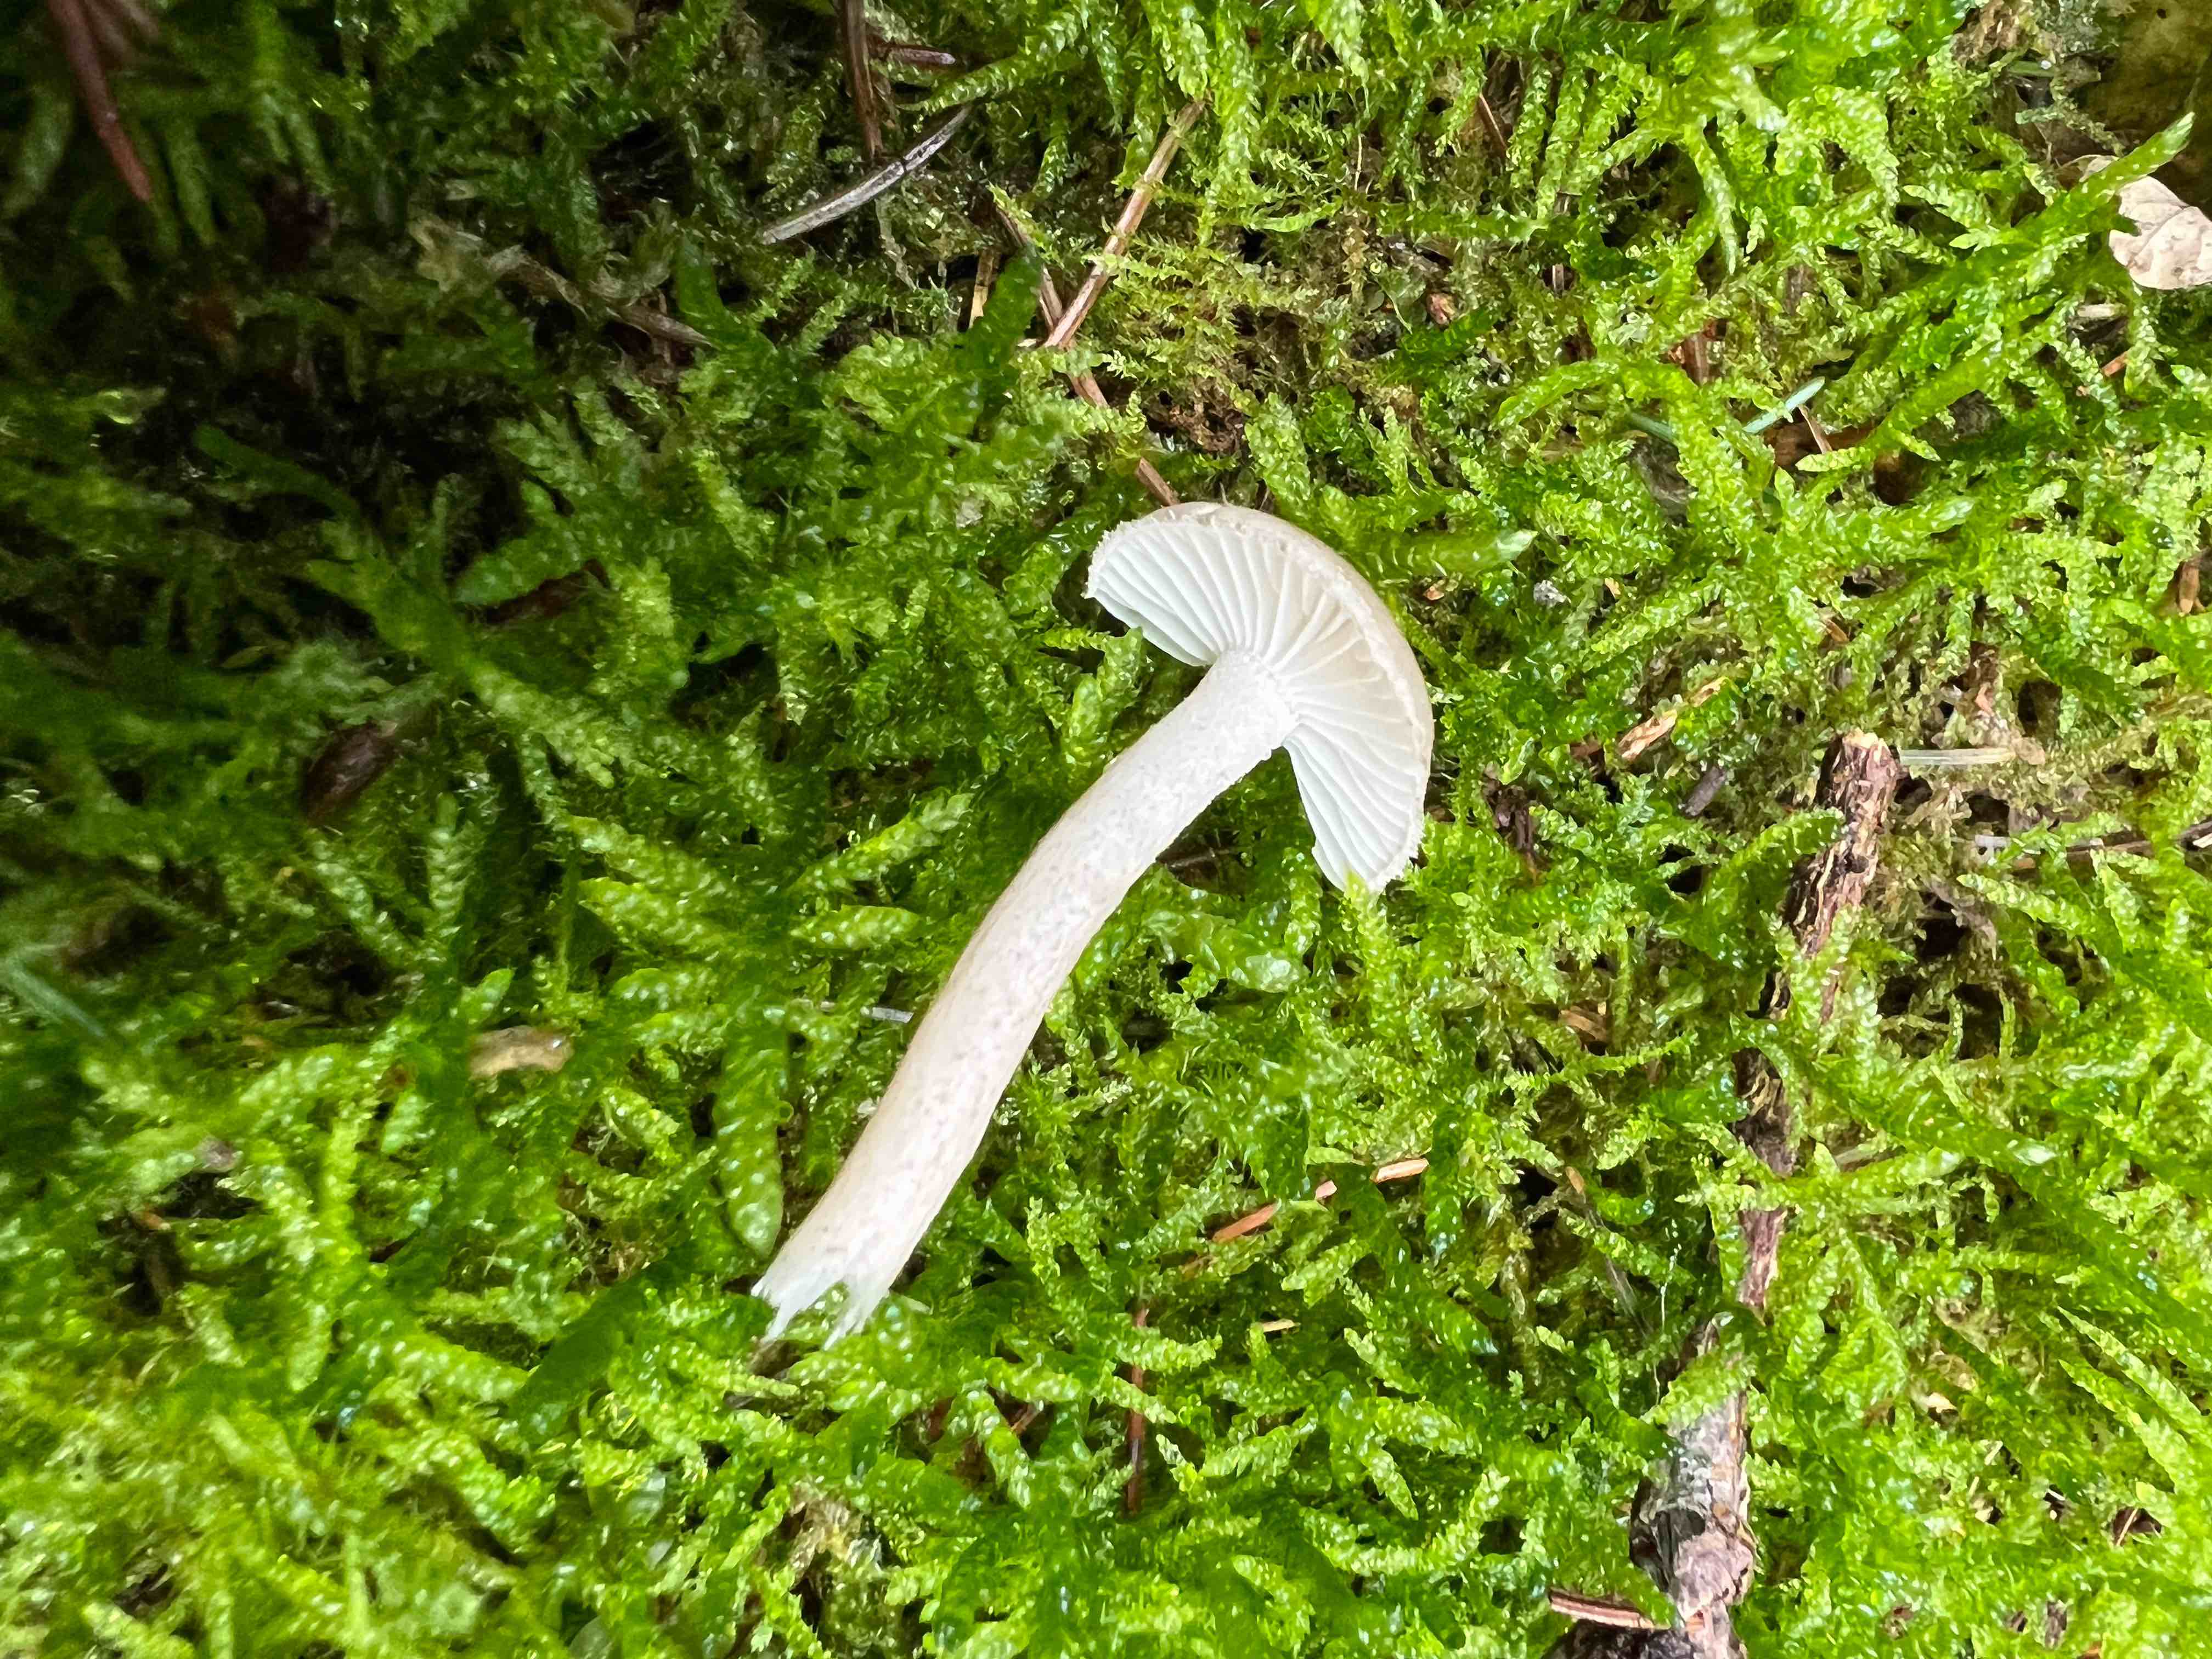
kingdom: Fungi
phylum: Basidiomycota
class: Agaricomycetes
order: Agaricales
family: Hygrophoraceae
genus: Hygrophorus
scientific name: Hygrophorus pustulatus
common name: mørkprikket sneglehat
